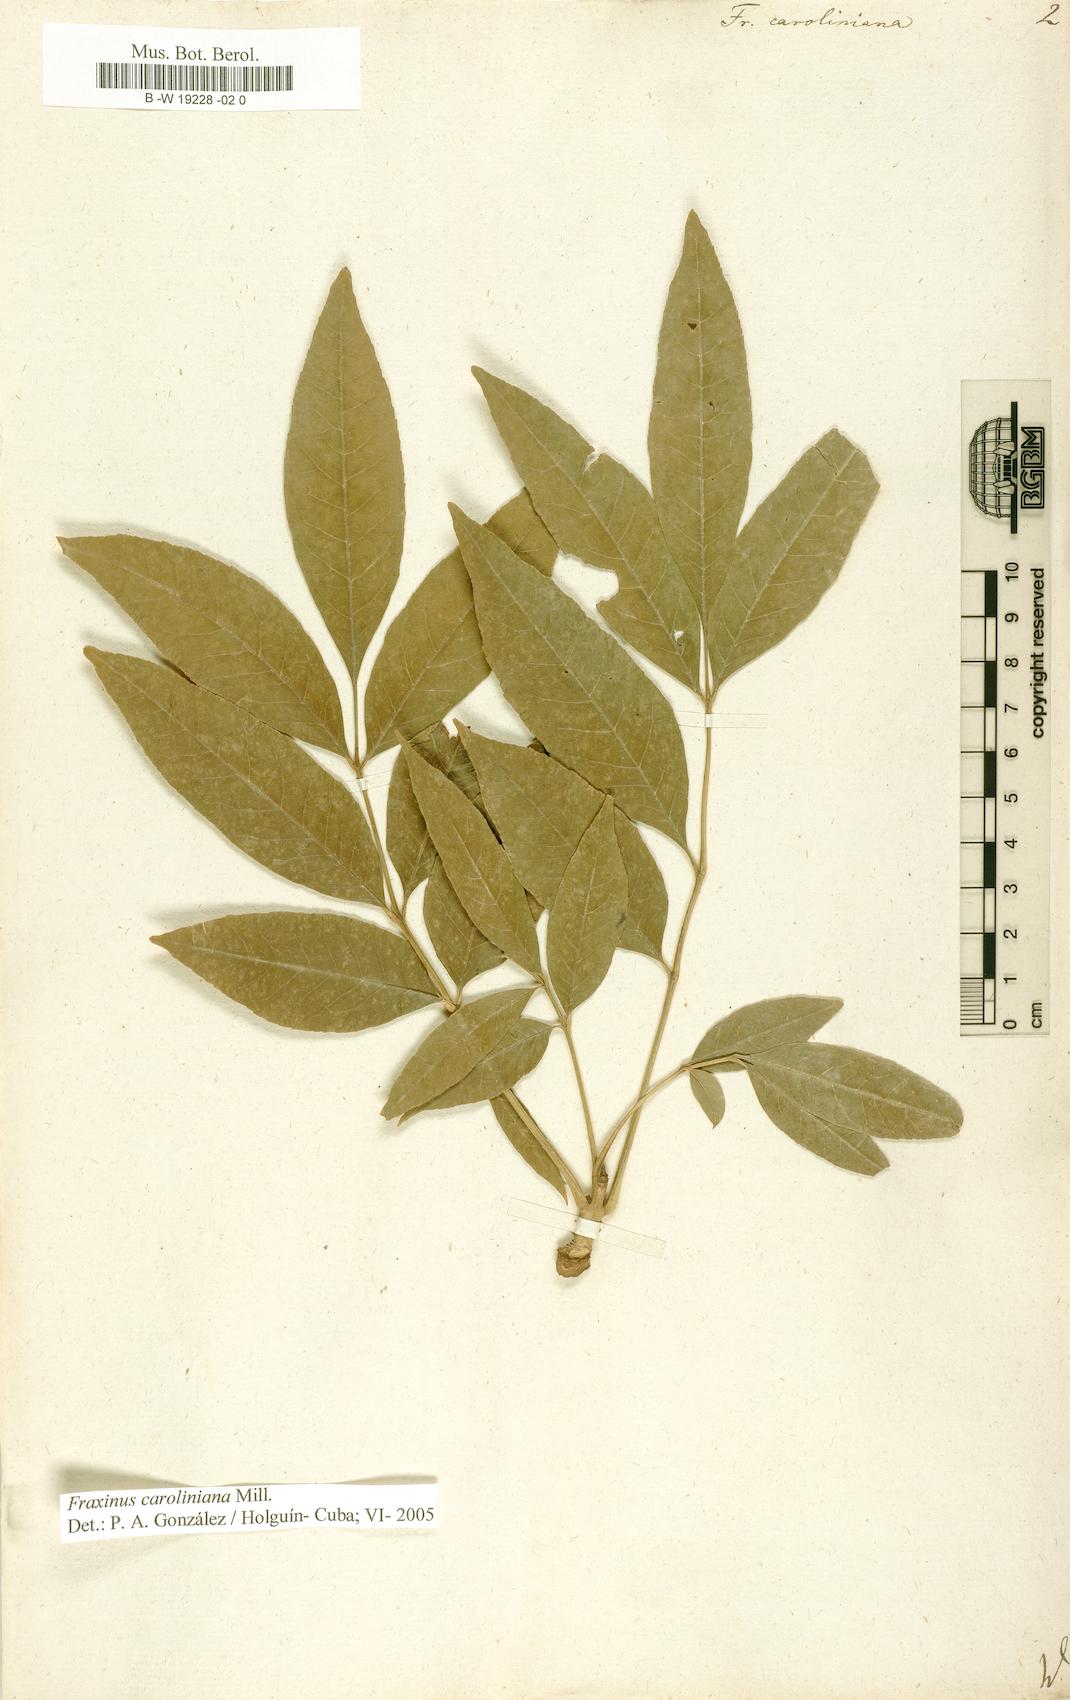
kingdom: Plantae
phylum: Tracheophyta
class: Magnoliopsida
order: Lamiales
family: Oleaceae
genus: Fraxinus
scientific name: Fraxinus caroliniana
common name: Carolina ash
